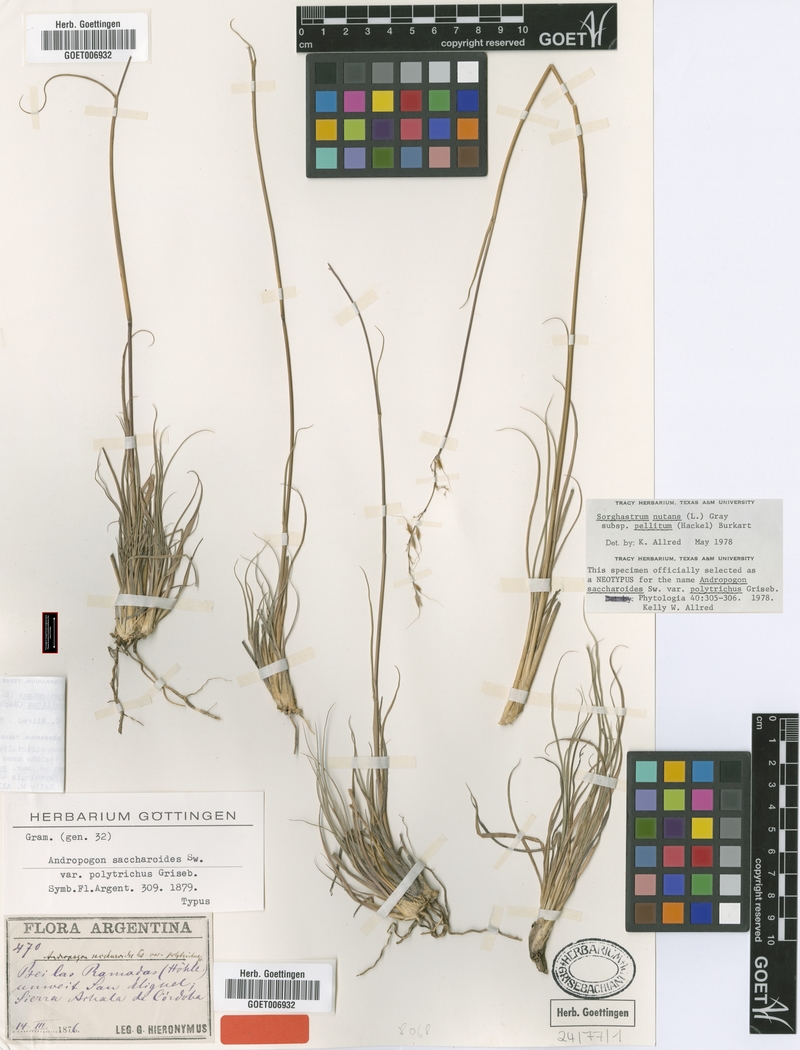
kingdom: Plantae
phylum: Tracheophyta
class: Liliopsida
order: Poales
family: Poaceae
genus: Sorghastrum
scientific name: Sorghastrum pellitum
